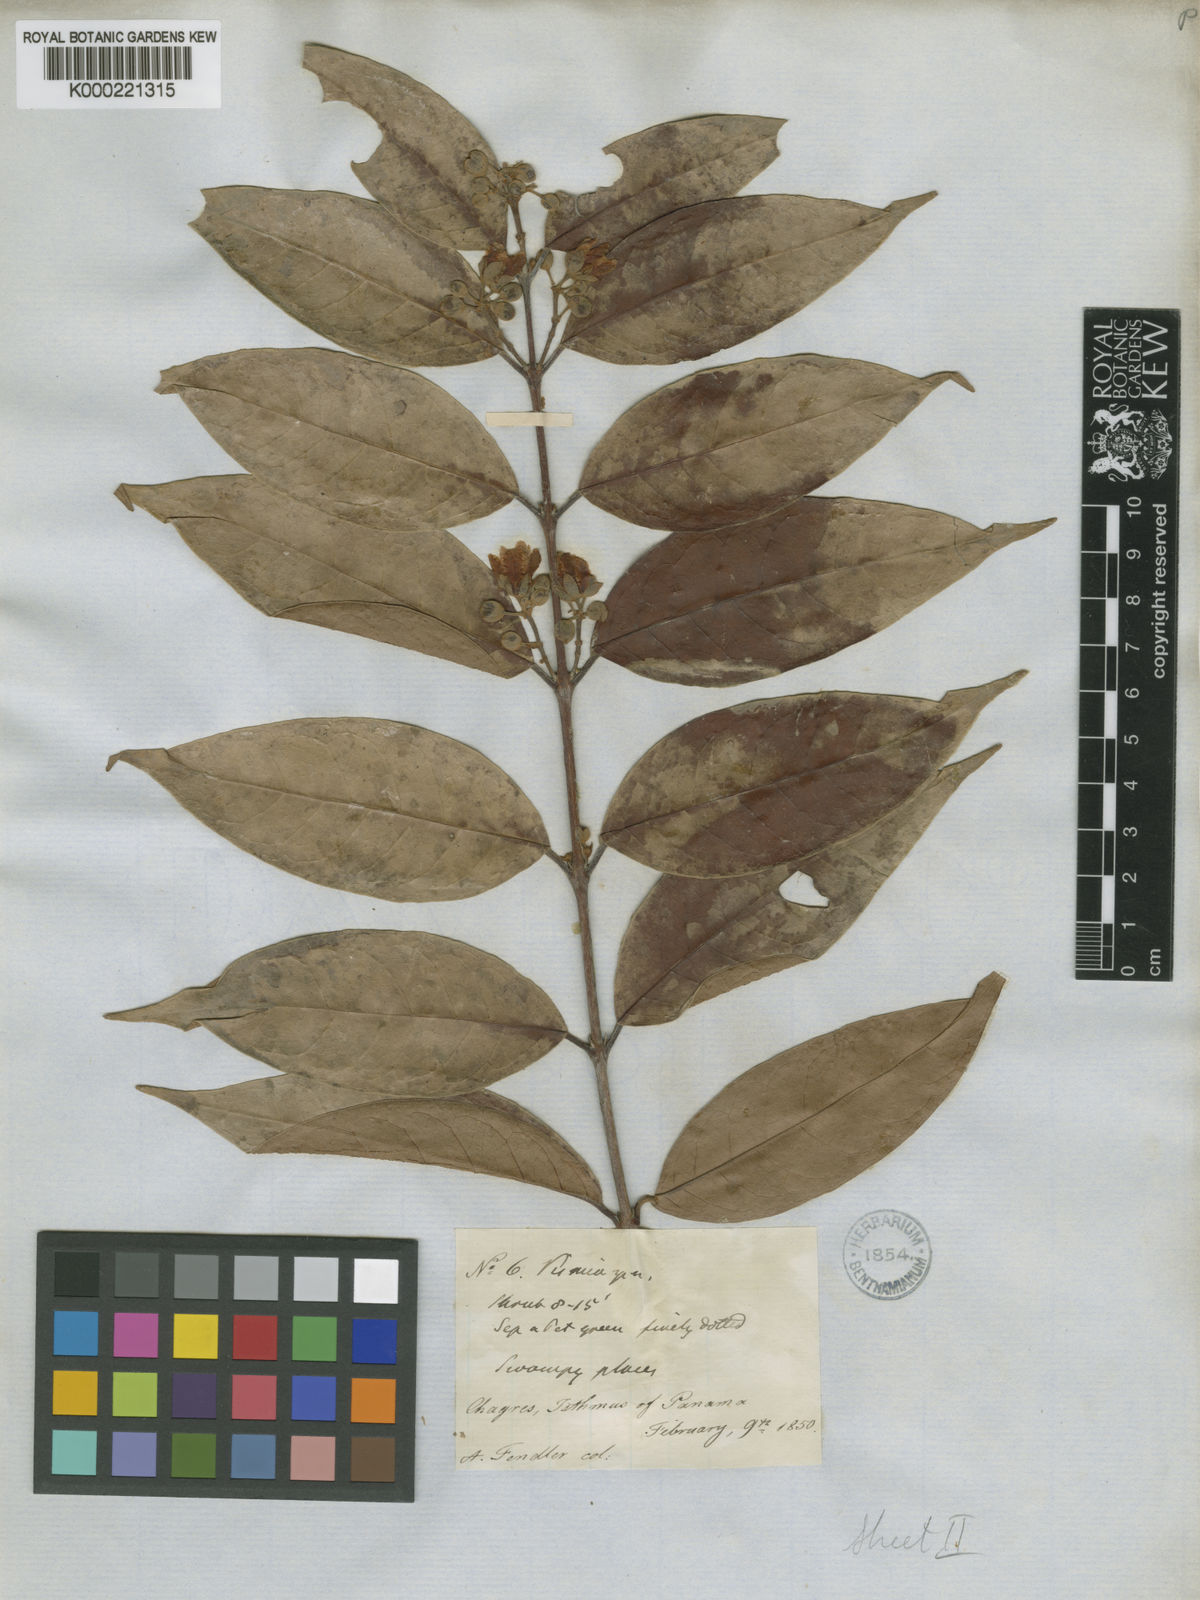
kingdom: Plantae
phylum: Tracheophyta
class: Magnoliopsida
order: Malpighiales
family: Hypericaceae
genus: Vismia
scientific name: Vismia billbergiana
